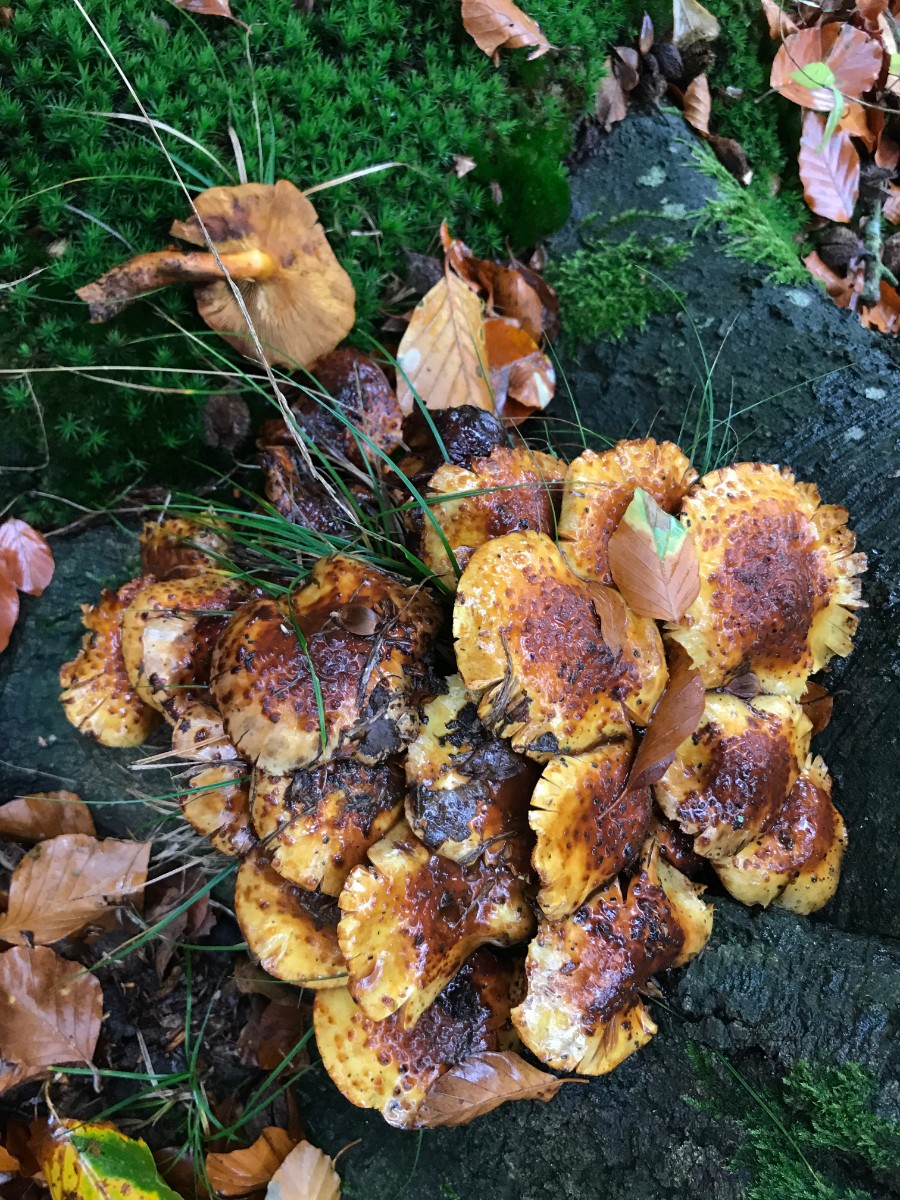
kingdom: Fungi
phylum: Basidiomycota
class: Agaricomycetes
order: Agaricales
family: Strophariaceae
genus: Pholiota
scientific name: Pholiota jahnii
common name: slimet skælhat
